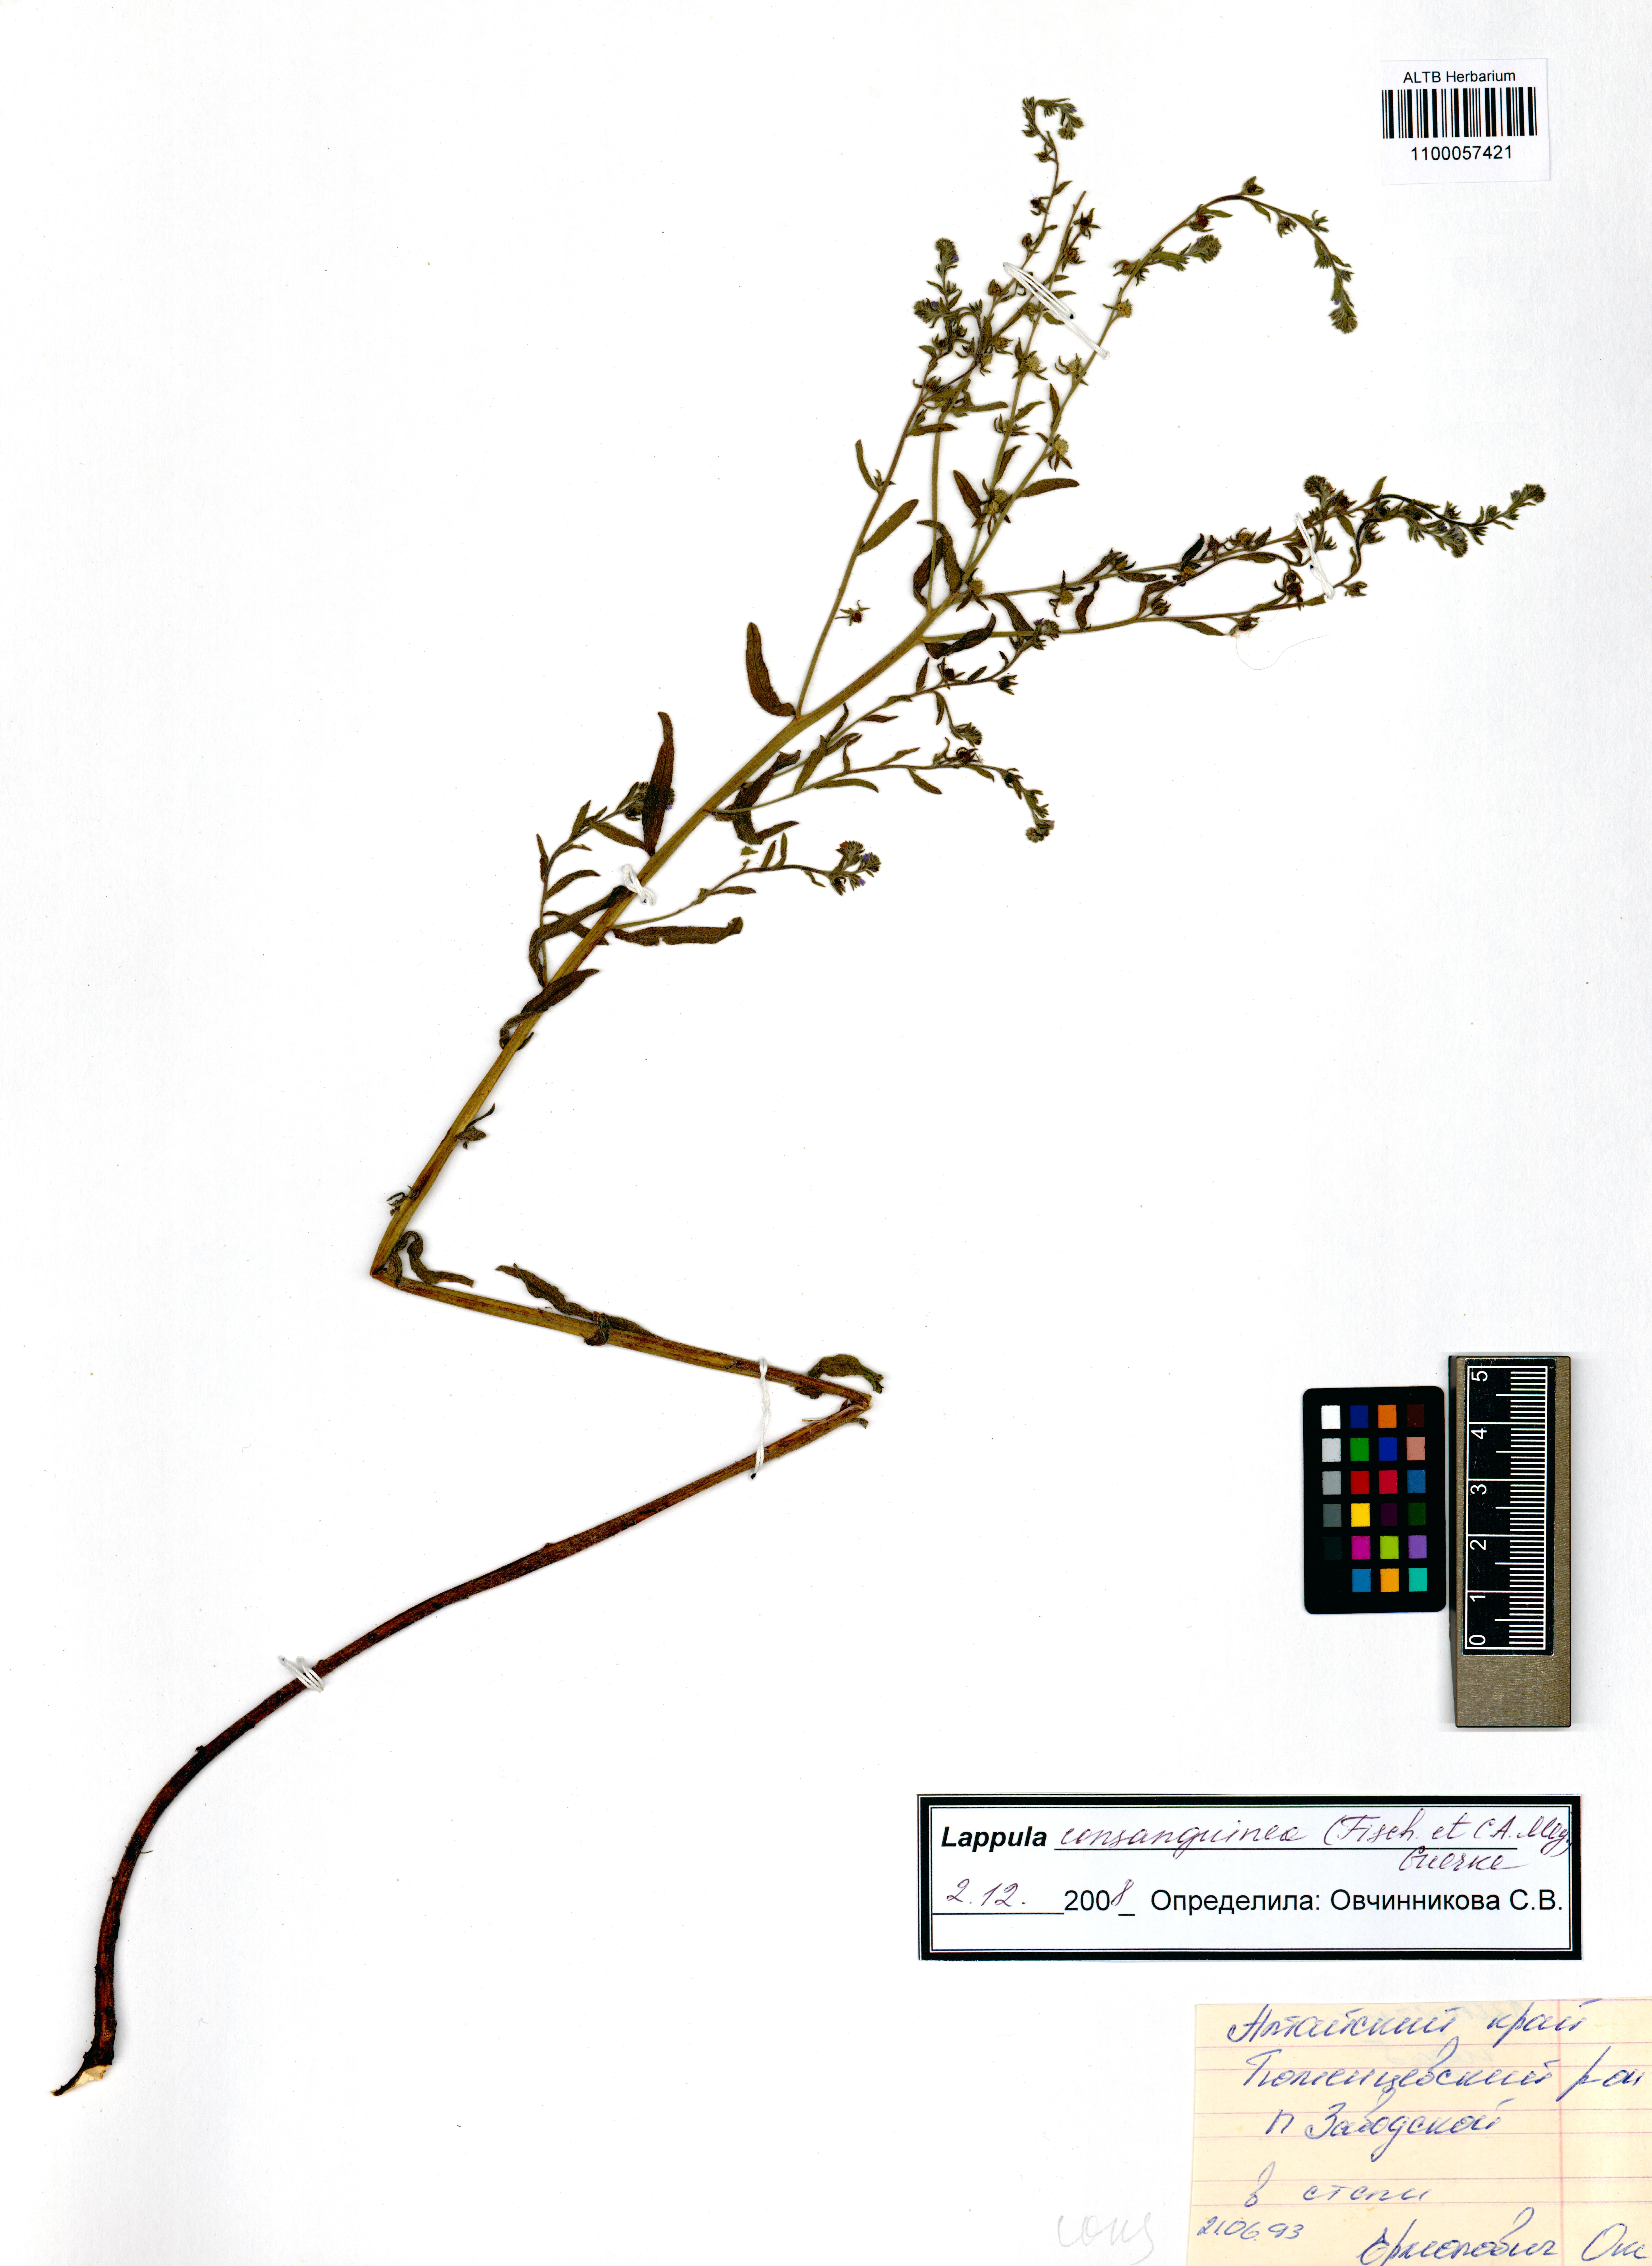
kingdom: Plantae
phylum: Tracheophyta
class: Magnoliopsida
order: Boraginales
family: Boraginaceae
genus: Lappula
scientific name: Lappula squarrosa
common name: European stickseed
